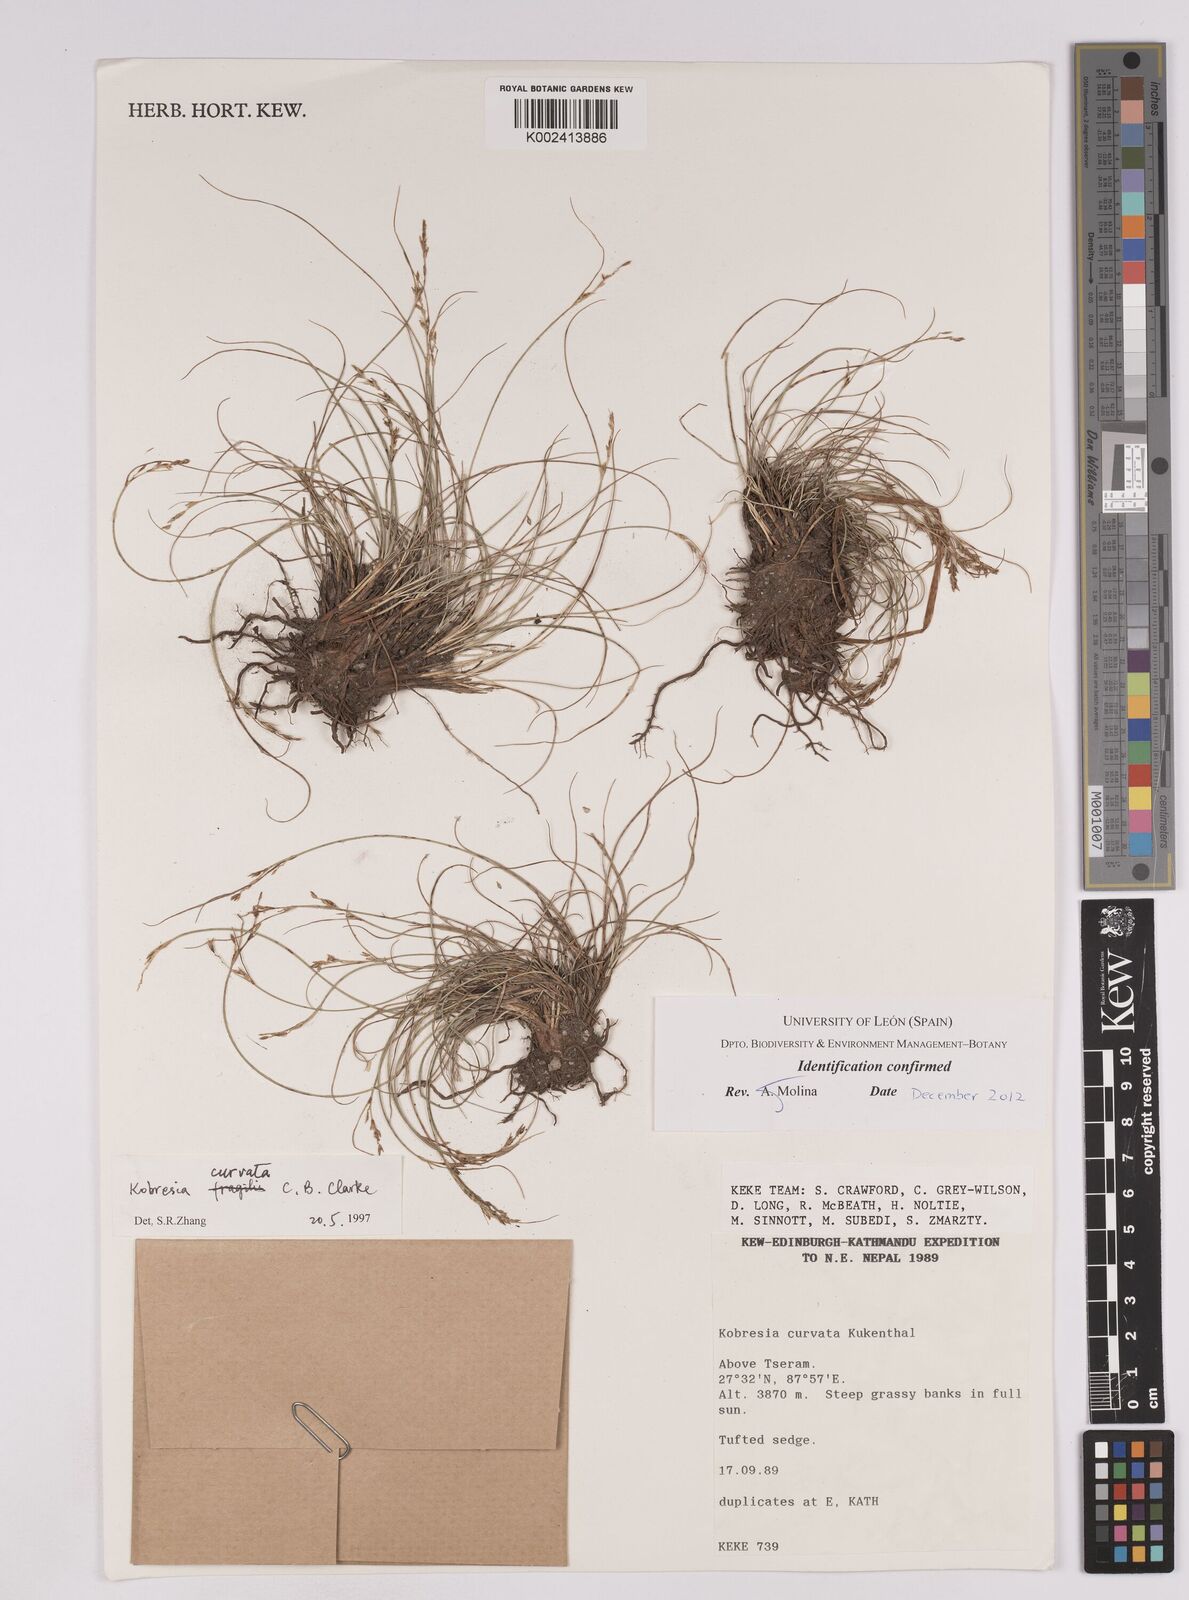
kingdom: Plantae
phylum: Tracheophyta
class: Liliopsida
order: Poales
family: Cyperaceae
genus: Carex
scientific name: Carex bonatiana
